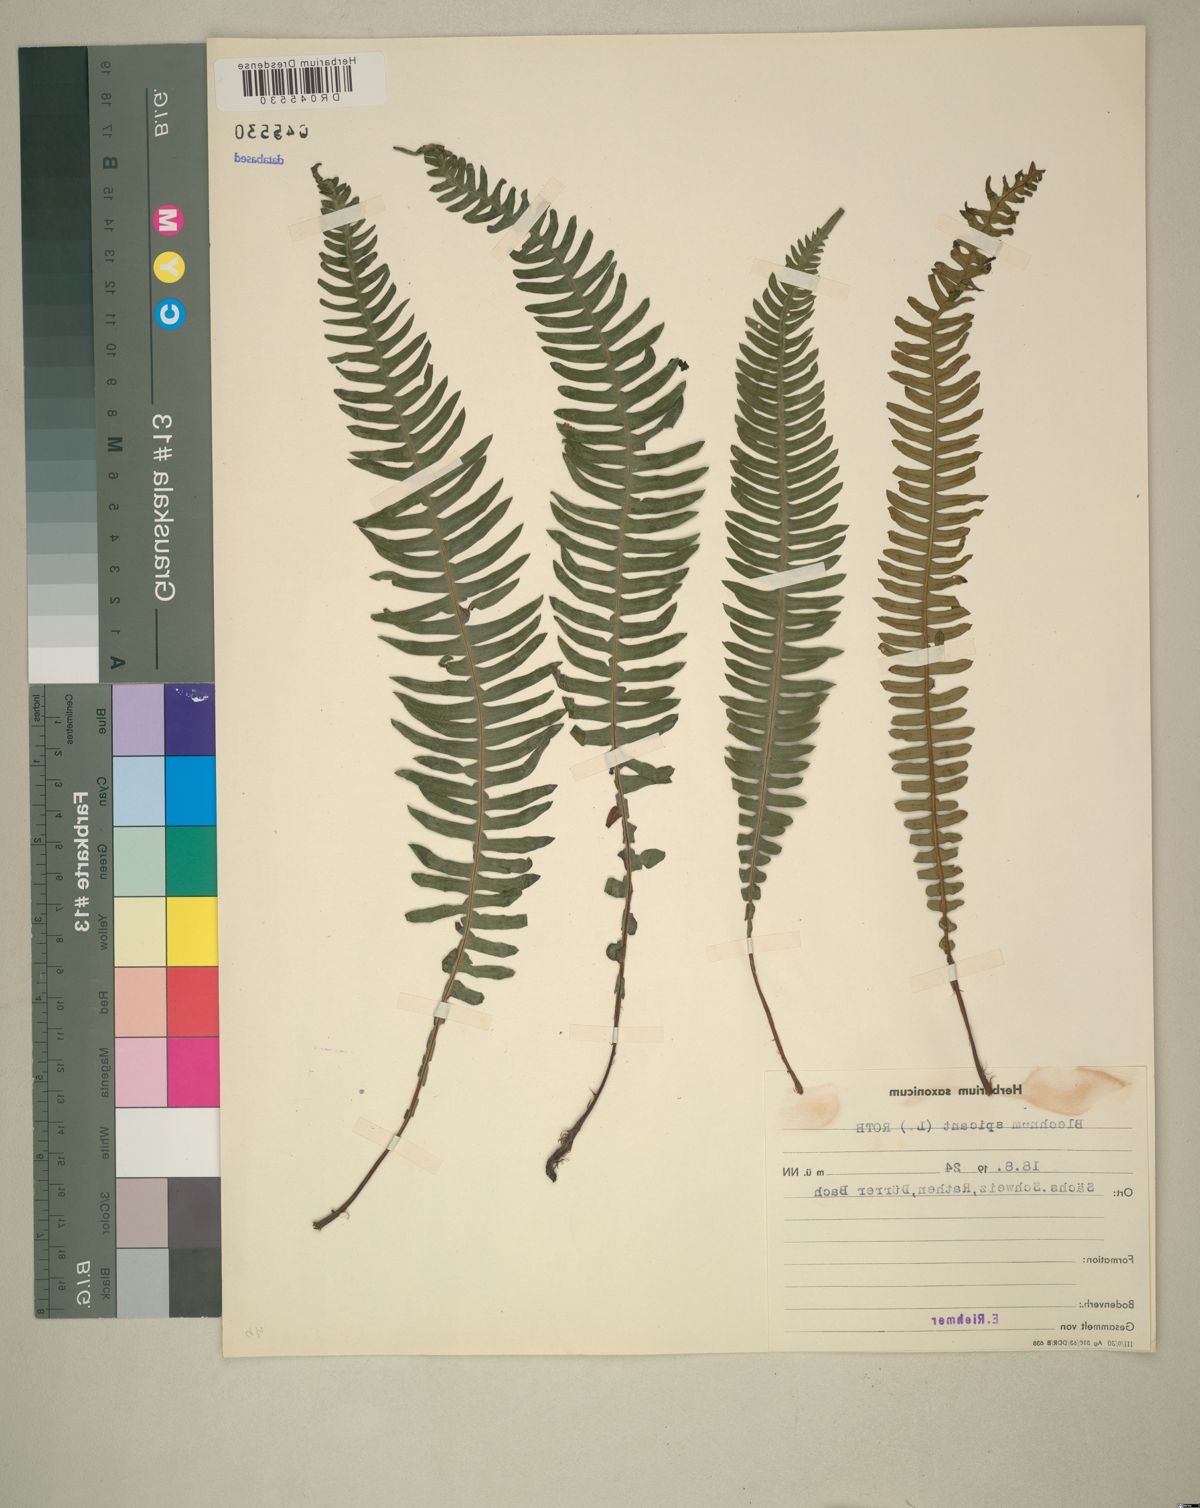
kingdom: Plantae
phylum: Tracheophyta
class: Polypodiopsida
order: Polypodiales
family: Blechnaceae
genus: Struthiopteris
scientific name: Struthiopteris spicant
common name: Deer fern
